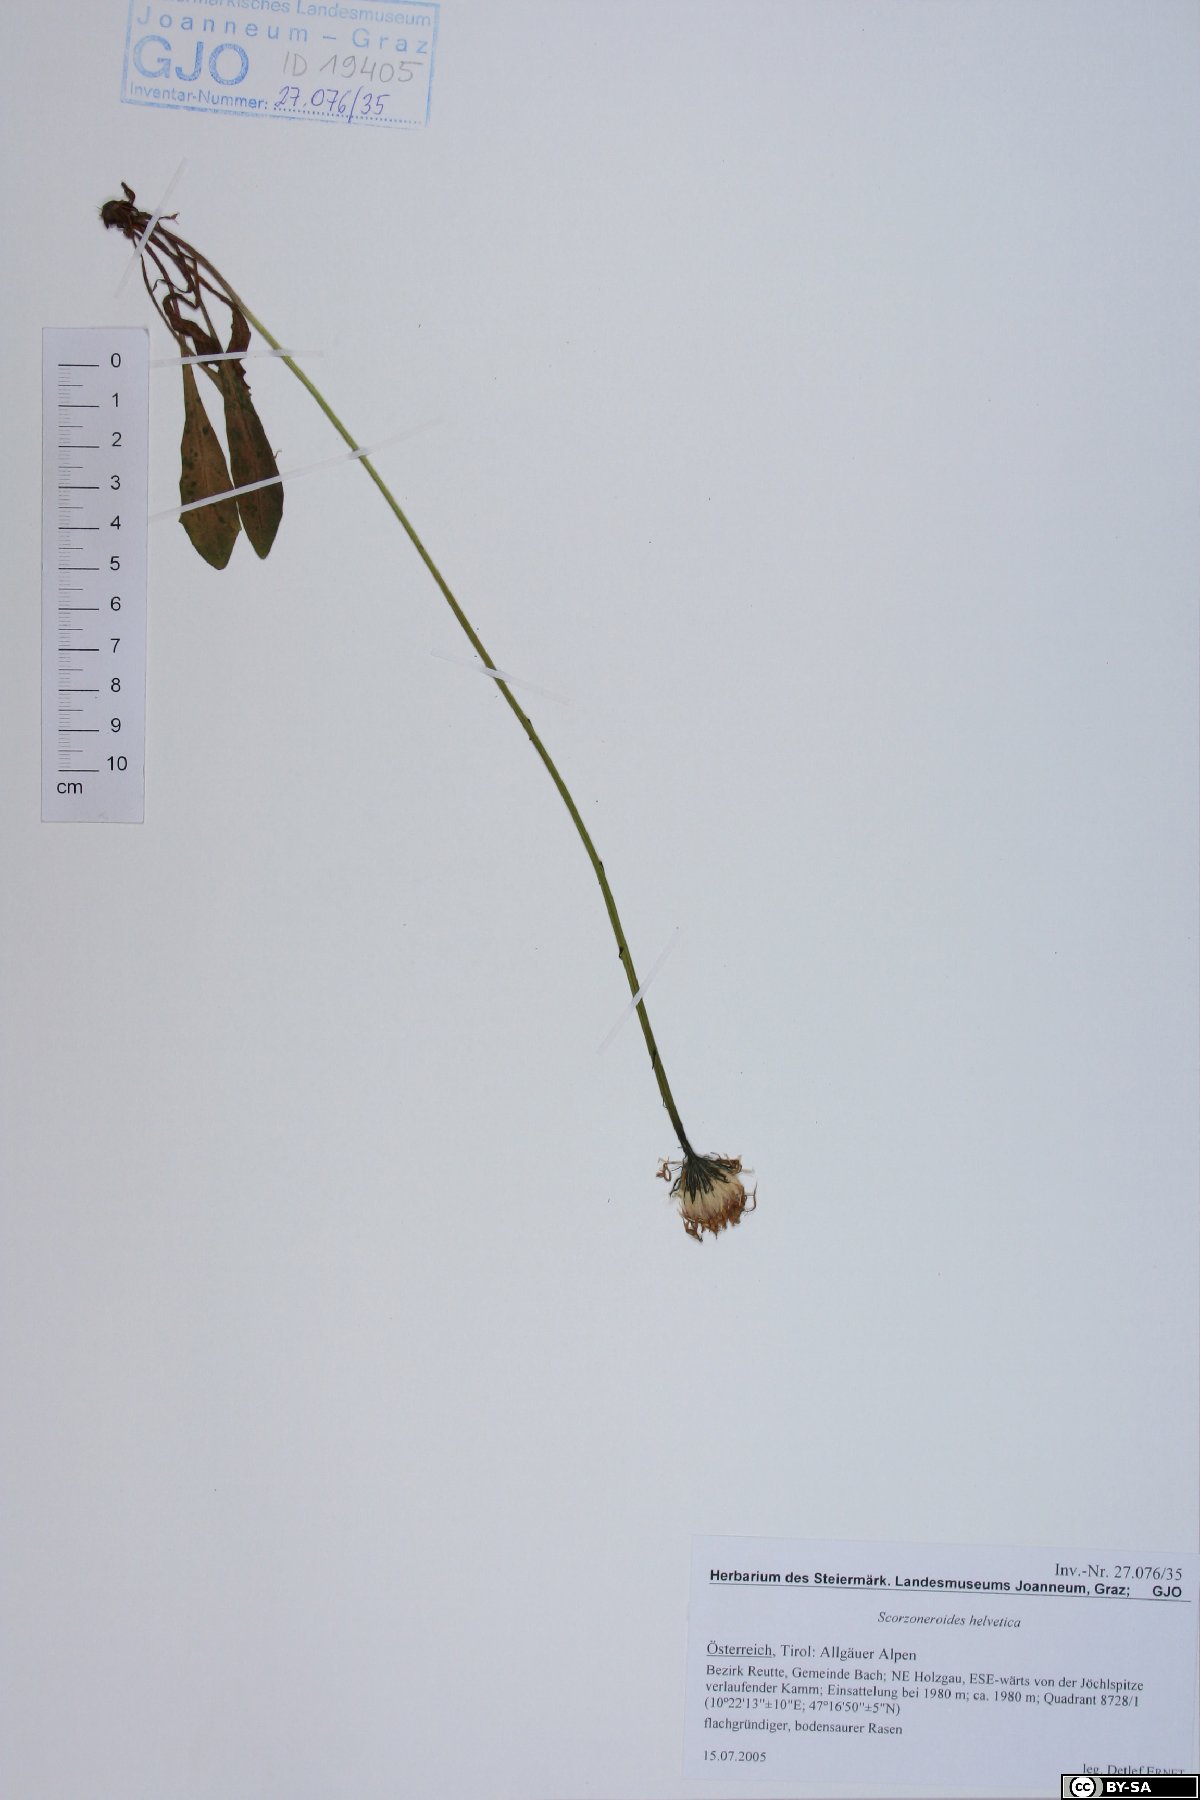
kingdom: Plantae
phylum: Tracheophyta
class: Magnoliopsida
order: Asterales
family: Asteraceae
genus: Scorzoneroides
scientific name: Scorzoneroides helvetica
